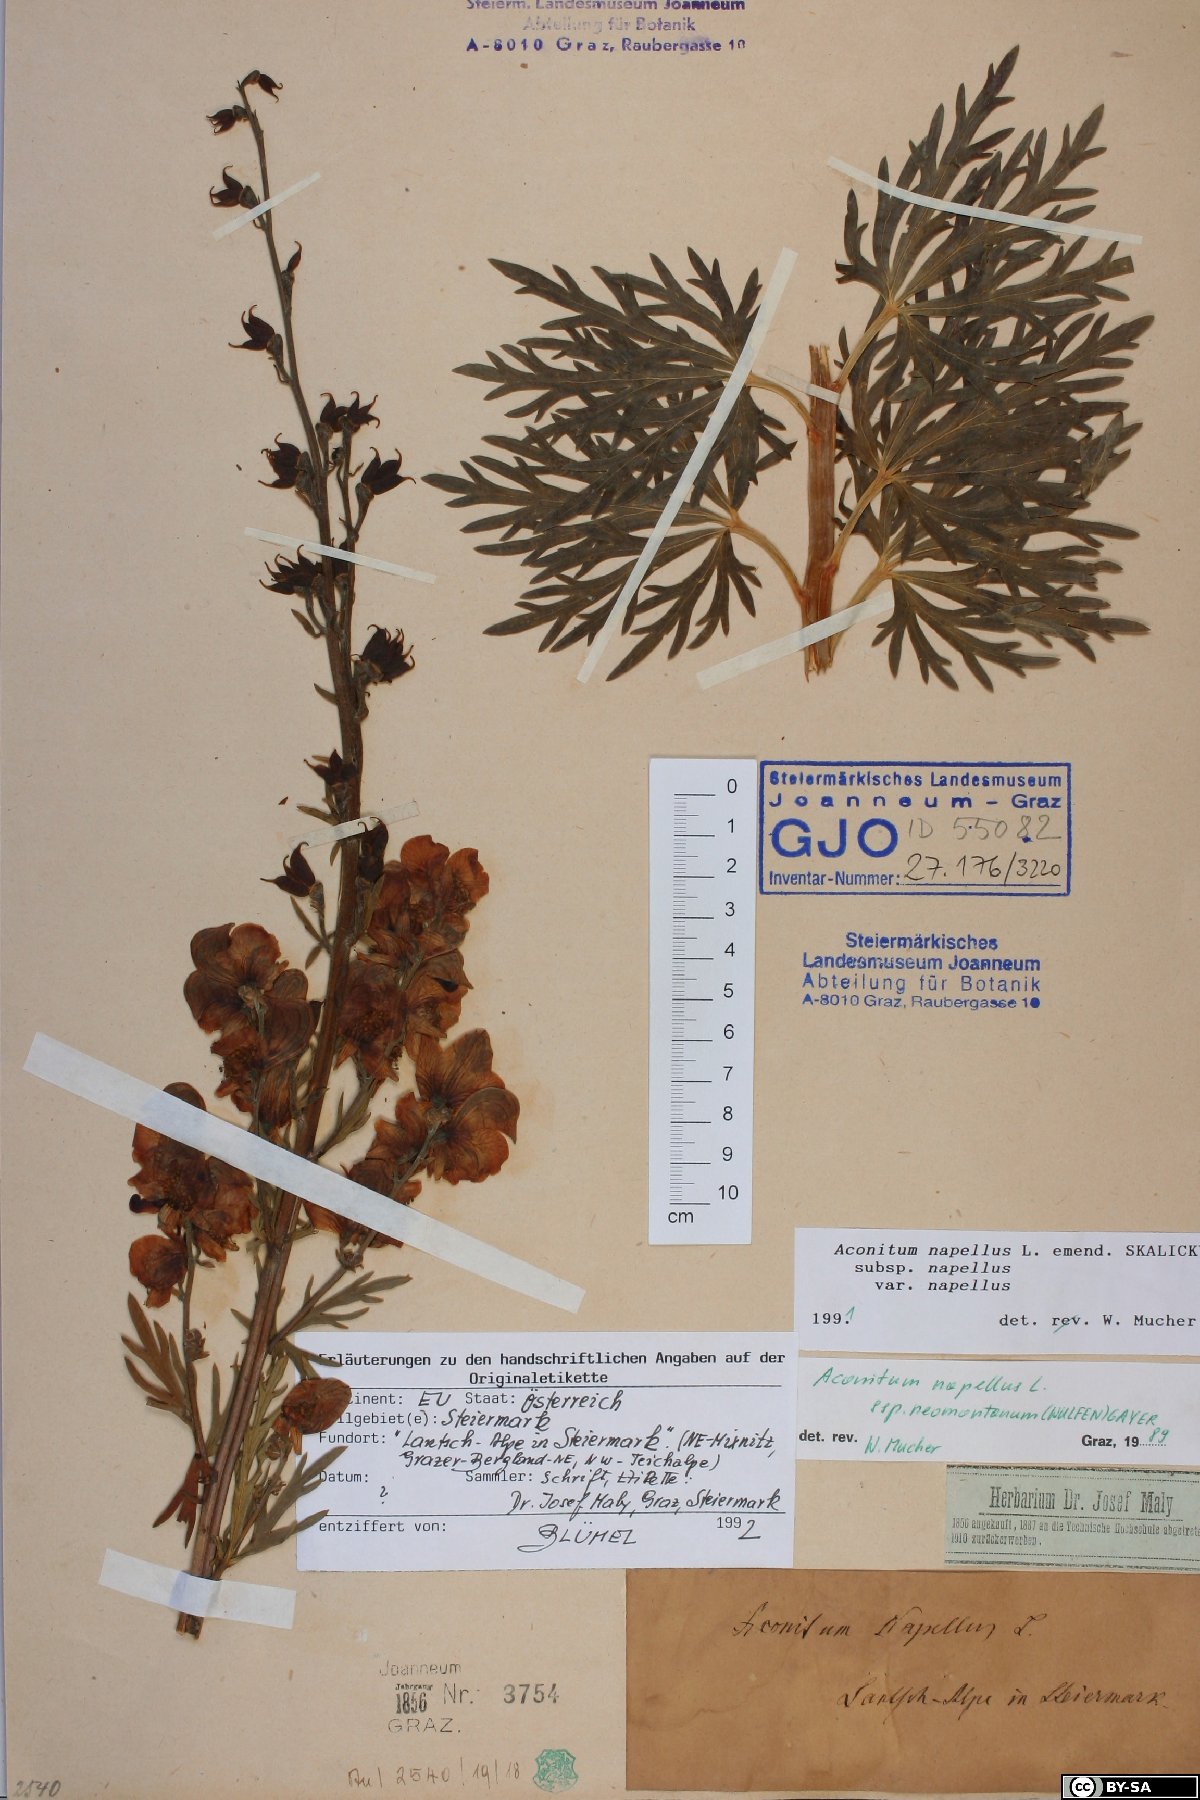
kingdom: Plantae
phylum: Tracheophyta
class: Magnoliopsida
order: Ranunculales
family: Ranunculaceae
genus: Aconitum
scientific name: Aconitum napellus
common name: Garden monkshood
